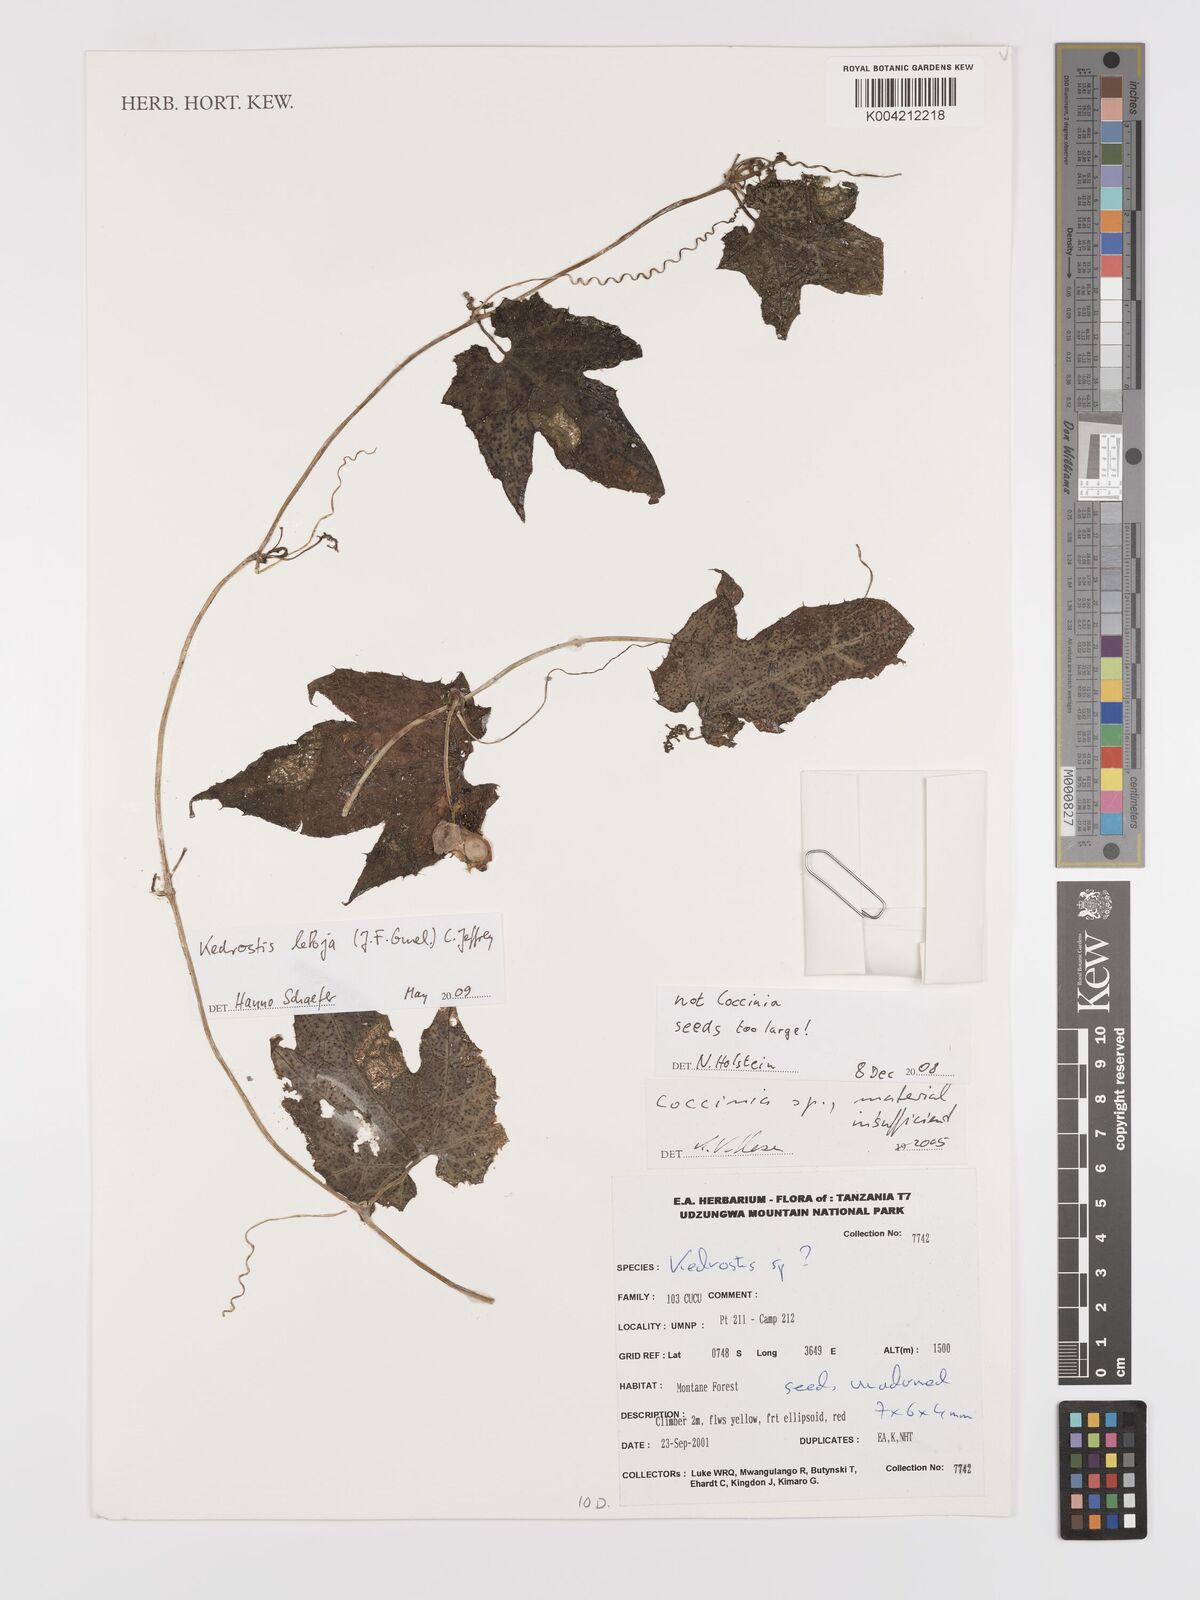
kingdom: Plantae
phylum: Tracheophyta
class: Magnoliopsida
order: Cucurbitales
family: Cucurbitaceae
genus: Kedrostis
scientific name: Kedrostis abdallae
